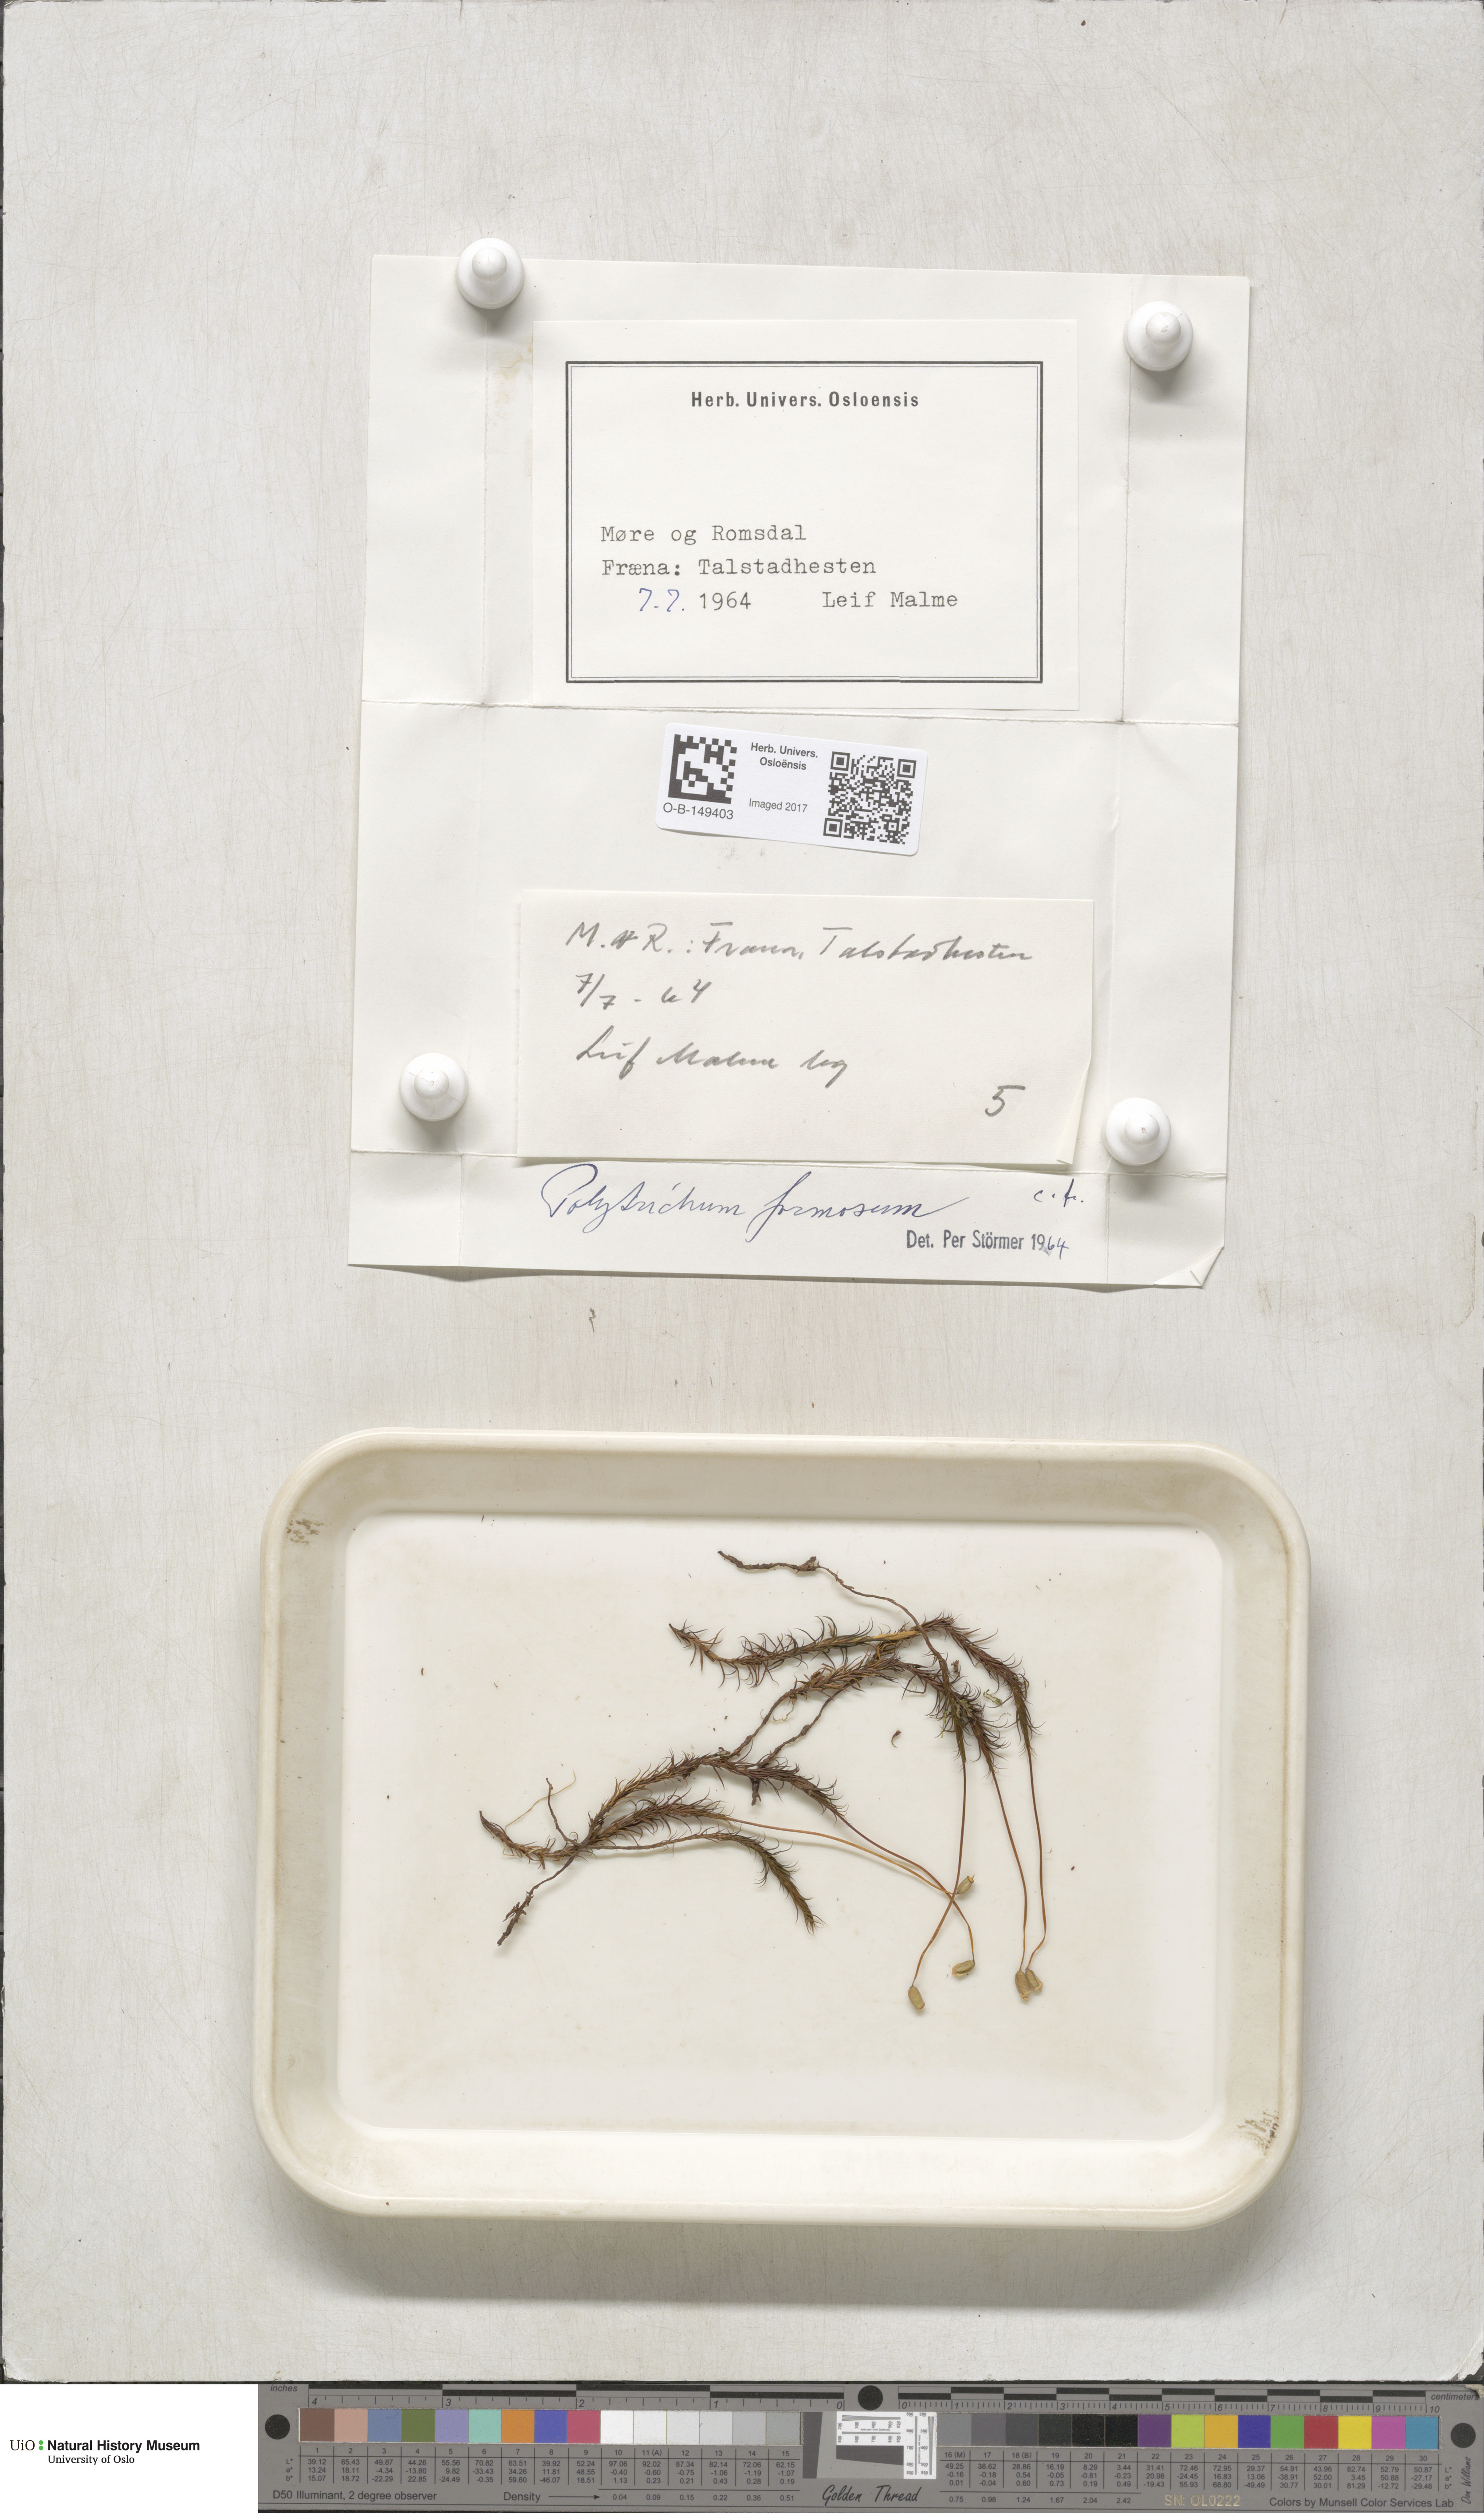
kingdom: Plantae
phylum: Bryophyta
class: Polytrichopsida
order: Polytrichales
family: Polytrichaceae
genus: Polytrichum
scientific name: Polytrichum formosum
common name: Bank haircap moss
